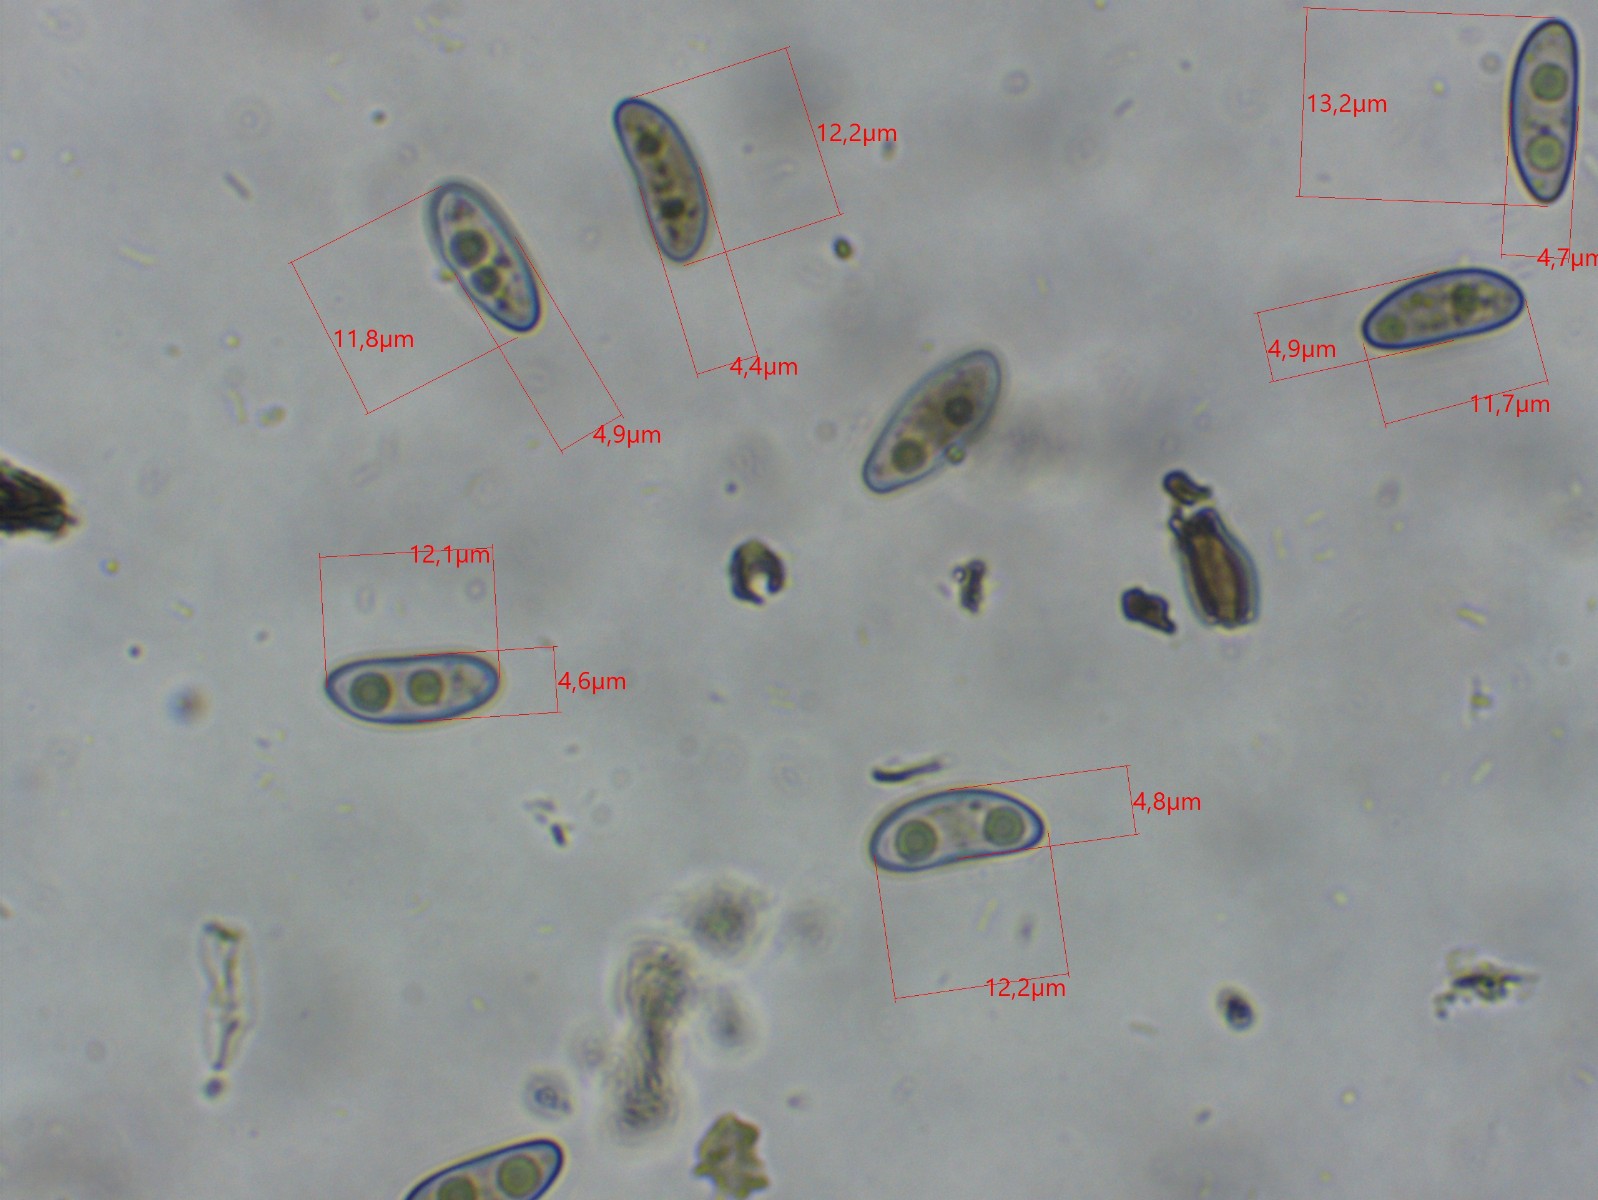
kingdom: Fungi
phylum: Ascomycota
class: Sordariomycetes
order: Xylariales
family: Xylariaceae
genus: Nemania
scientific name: Nemania
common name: kuldyne
